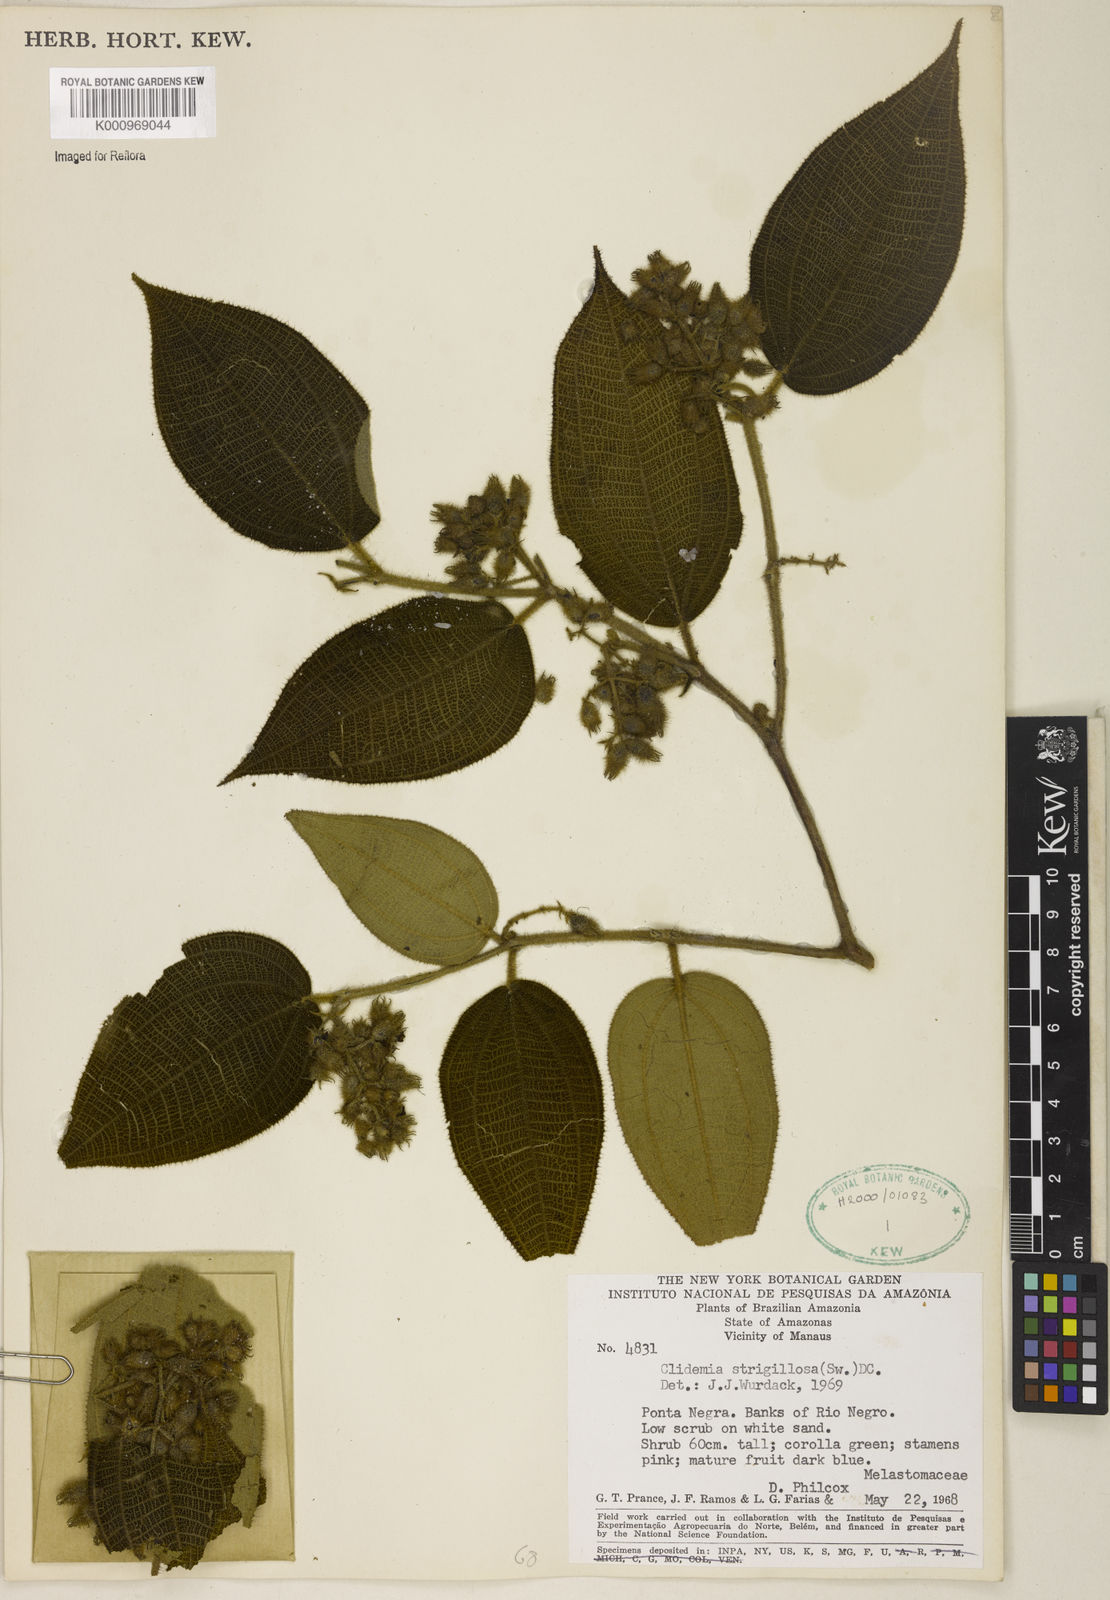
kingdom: Plantae
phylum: Tracheophyta
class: Magnoliopsida
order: Myrtales
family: Melastomataceae
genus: Miconia
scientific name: Miconia strigillosa
